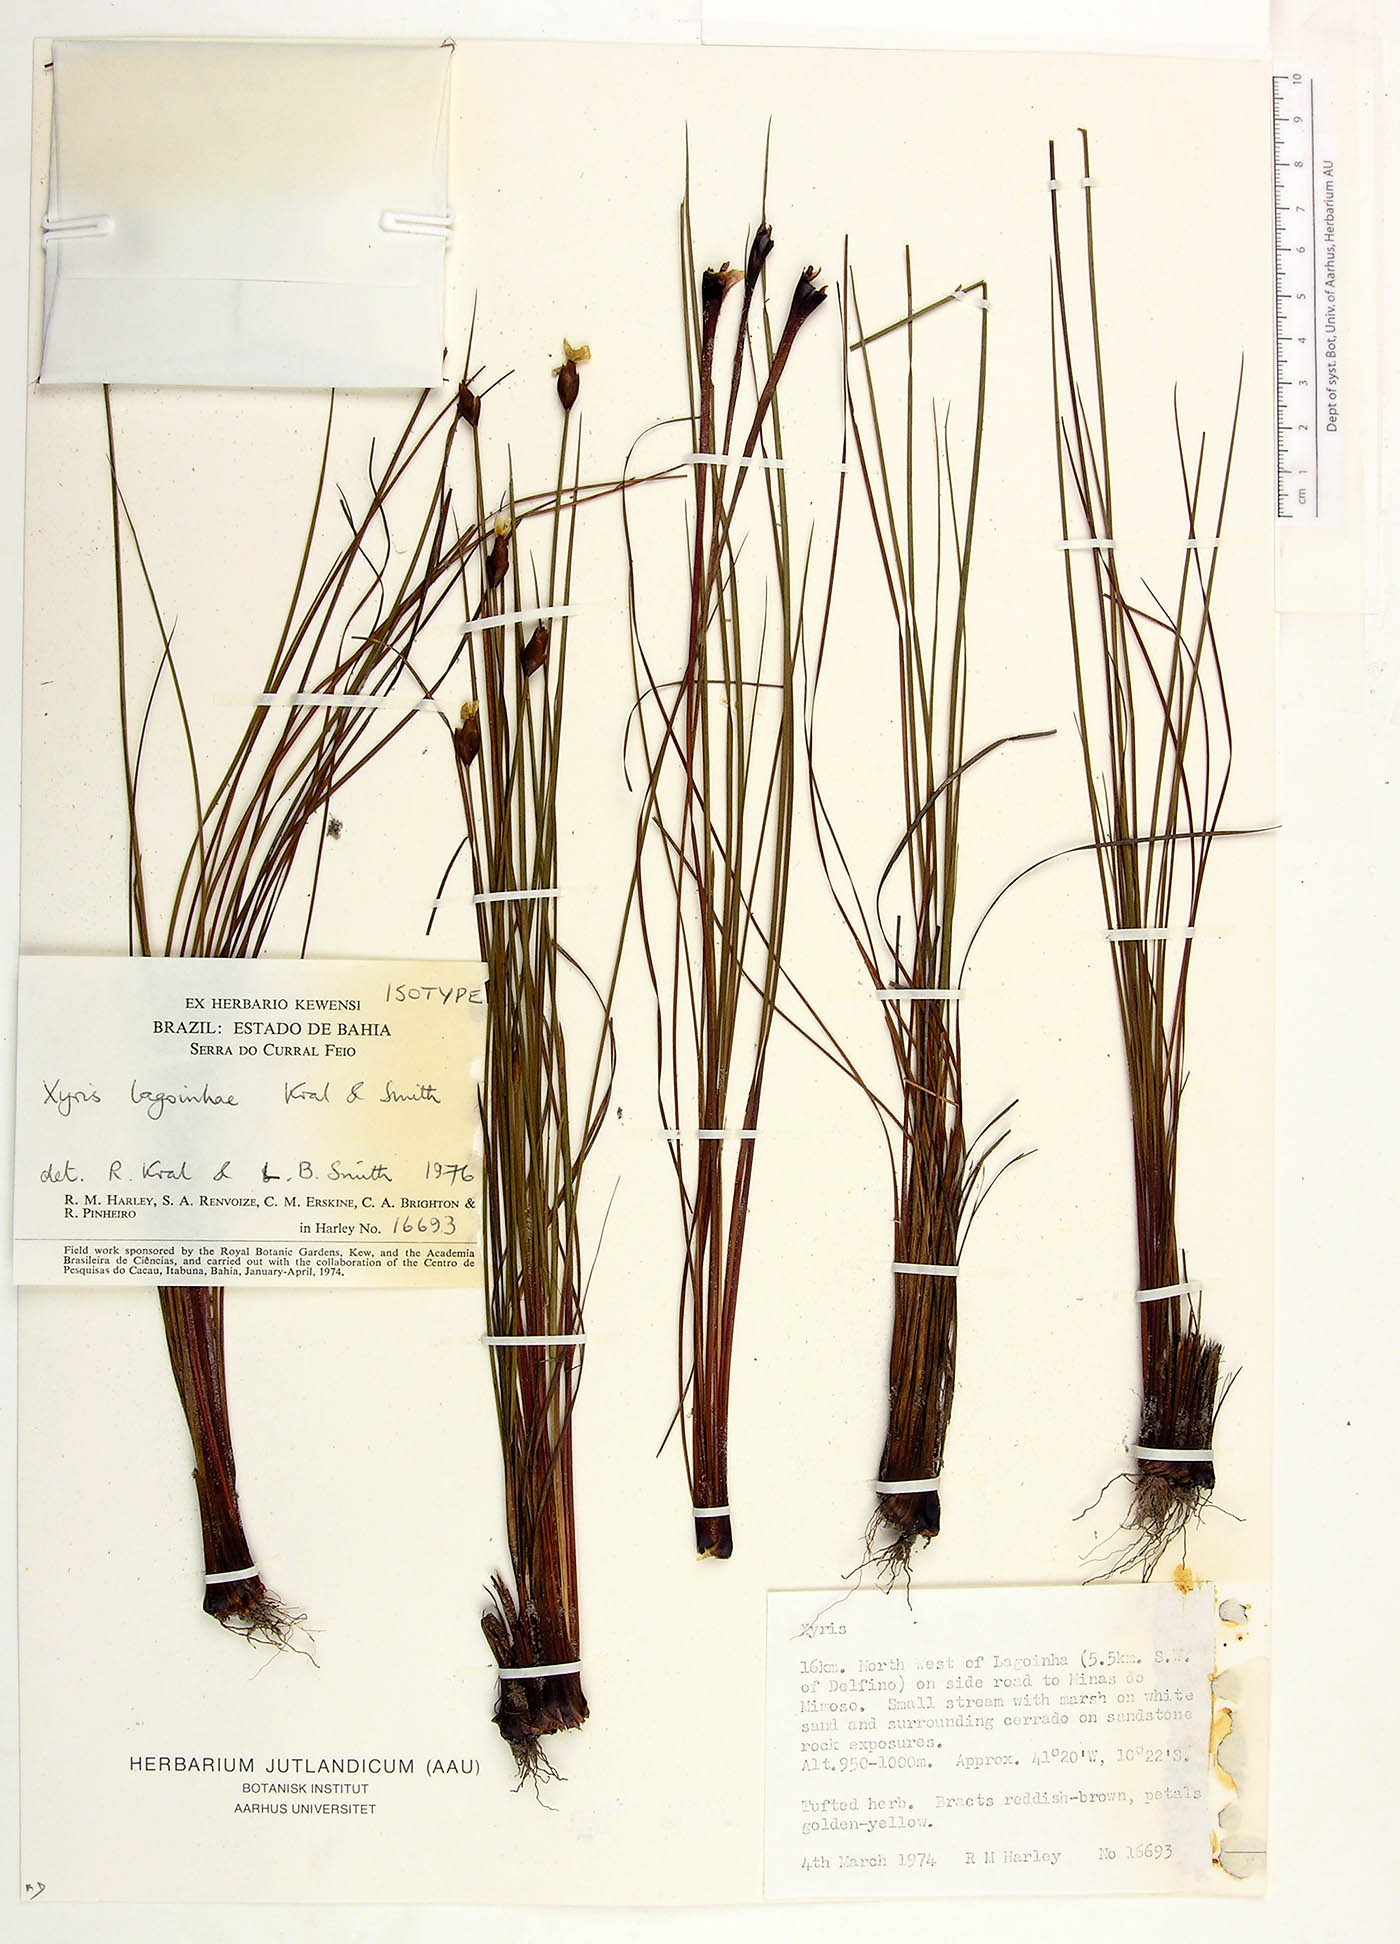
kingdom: Plantae
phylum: Tracheophyta
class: Liliopsida
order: Poales
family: Xyridaceae
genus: Xyris
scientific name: Xyris lagoinhae
